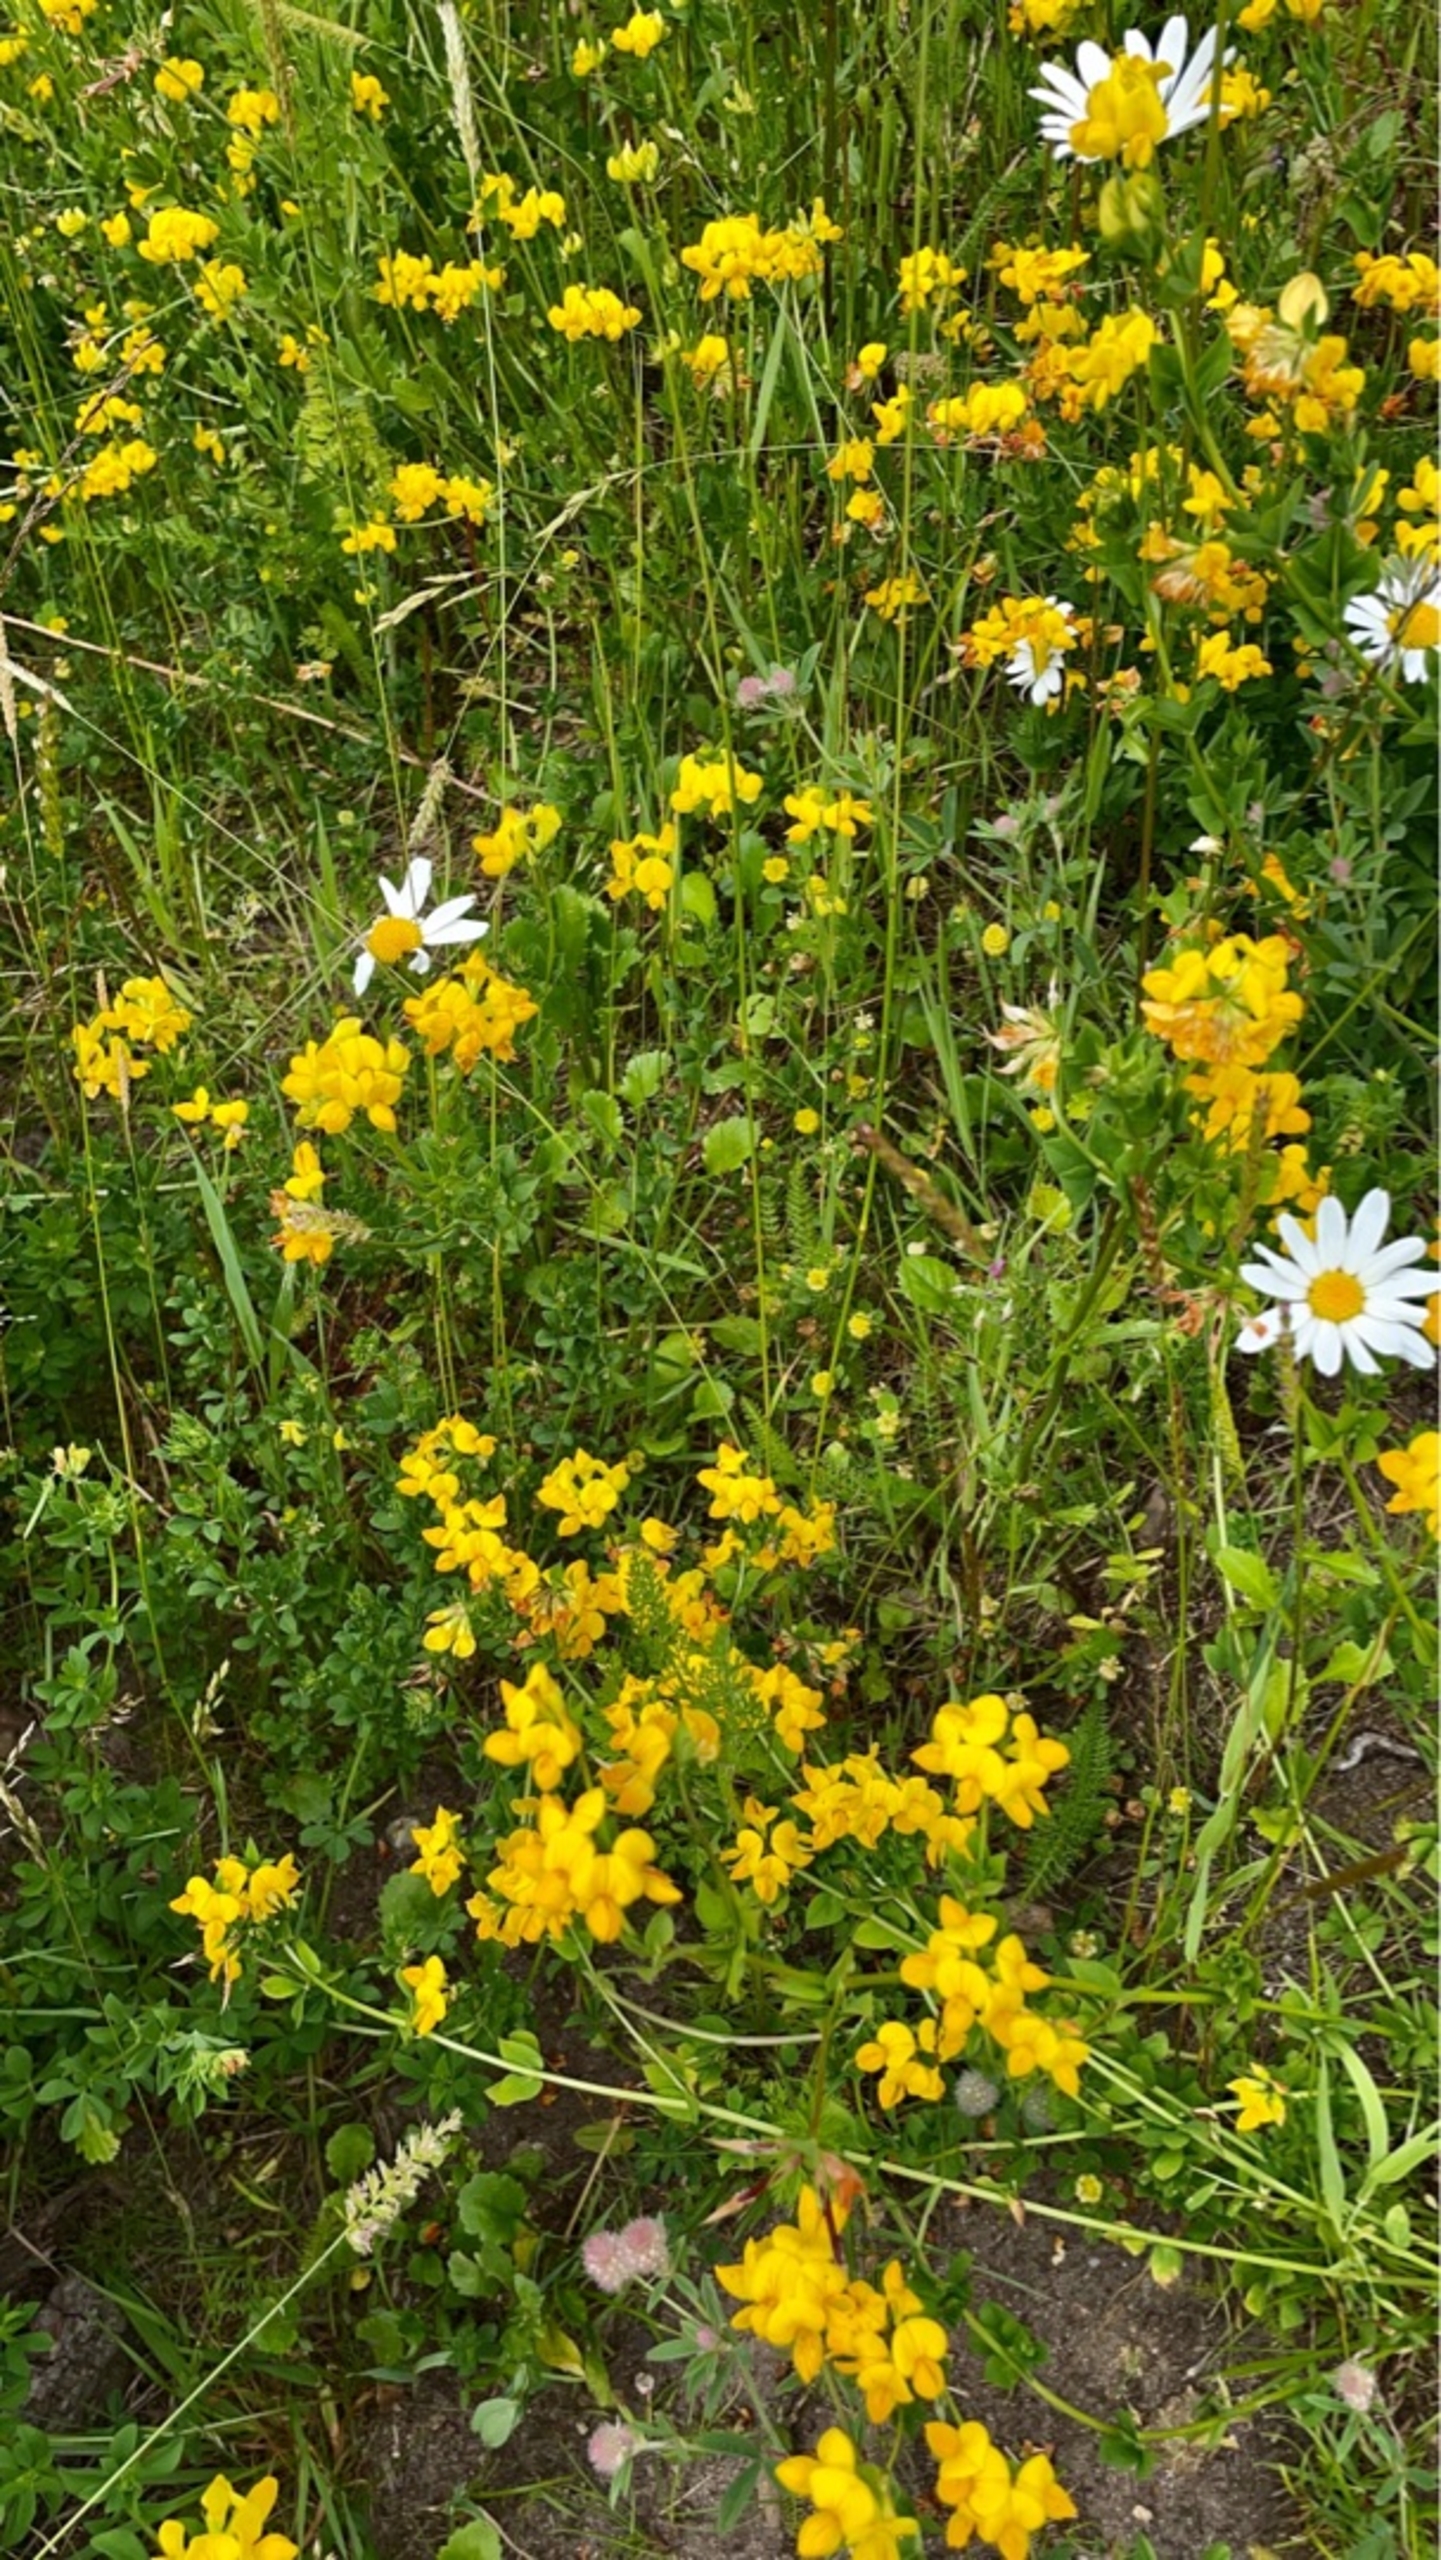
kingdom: Plantae
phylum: Tracheophyta
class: Magnoliopsida
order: Fabales
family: Fabaceae
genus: Lotus
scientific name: Lotus corniculatus
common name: Almindelig kællingetand
